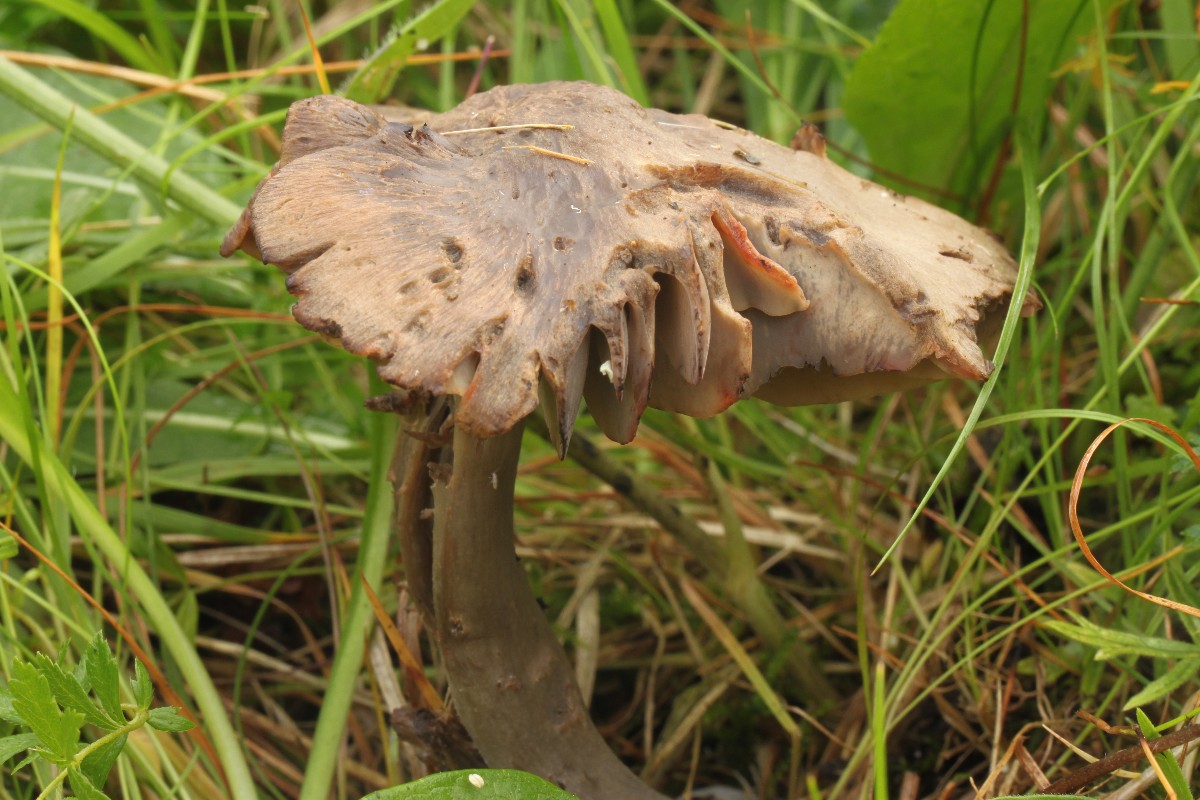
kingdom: Fungi
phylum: Basidiomycota
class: Agaricomycetes
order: Agaricales
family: Hygrophoraceae
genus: Neohygrocybe
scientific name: Neohygrocybe ovina
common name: rødmende vokshat
